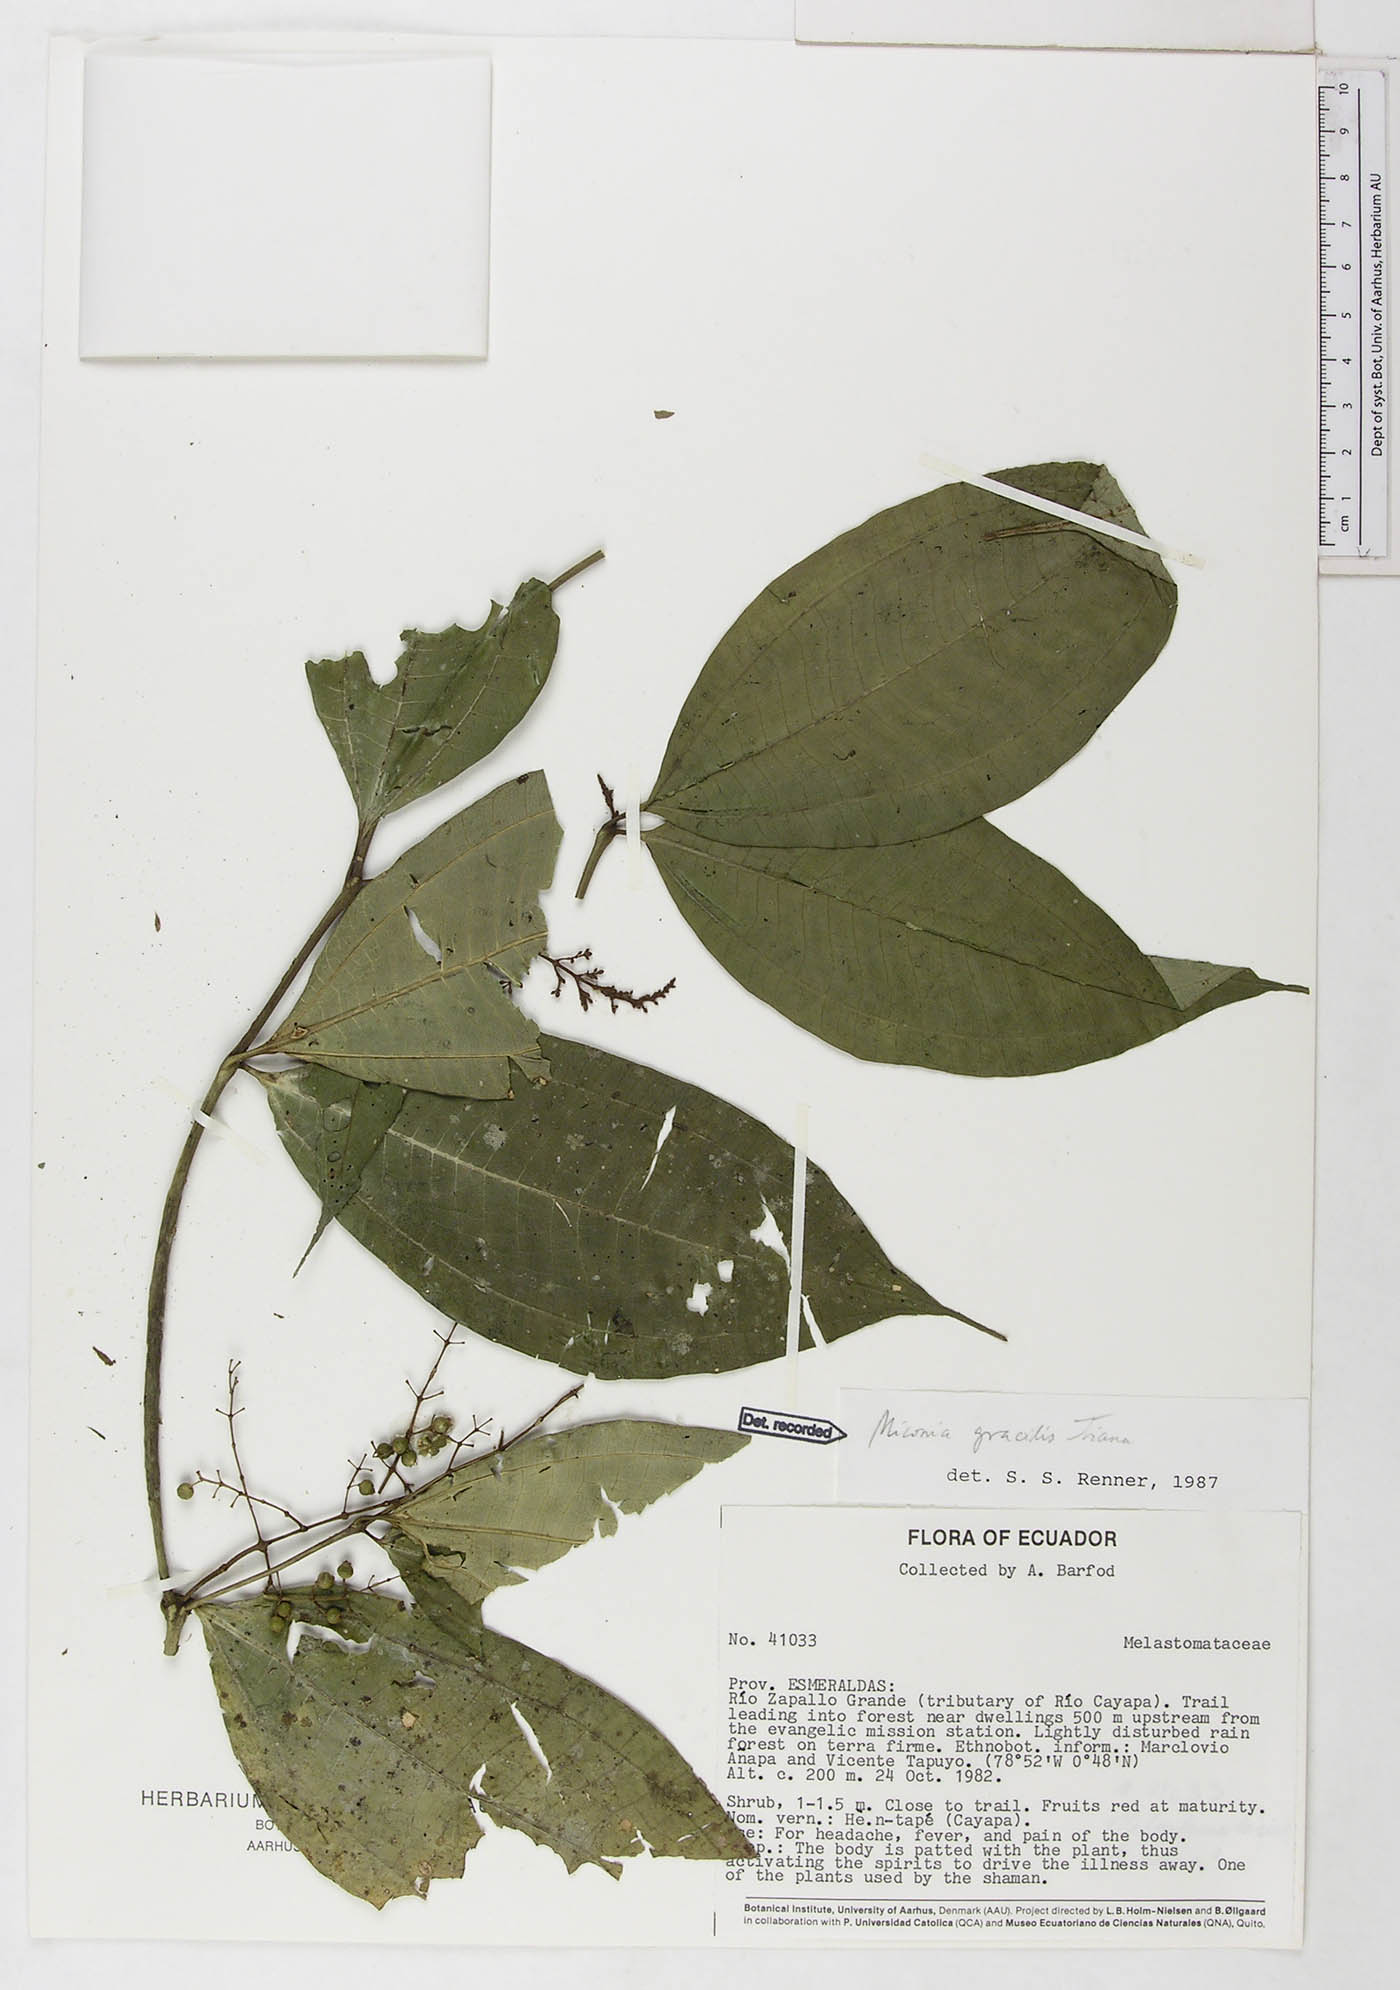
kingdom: Plantae
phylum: Tracheophyta
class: Magnoliopsida
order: Myrtales
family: Melastomataceae
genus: Miconia
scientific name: Miconia gracilis
